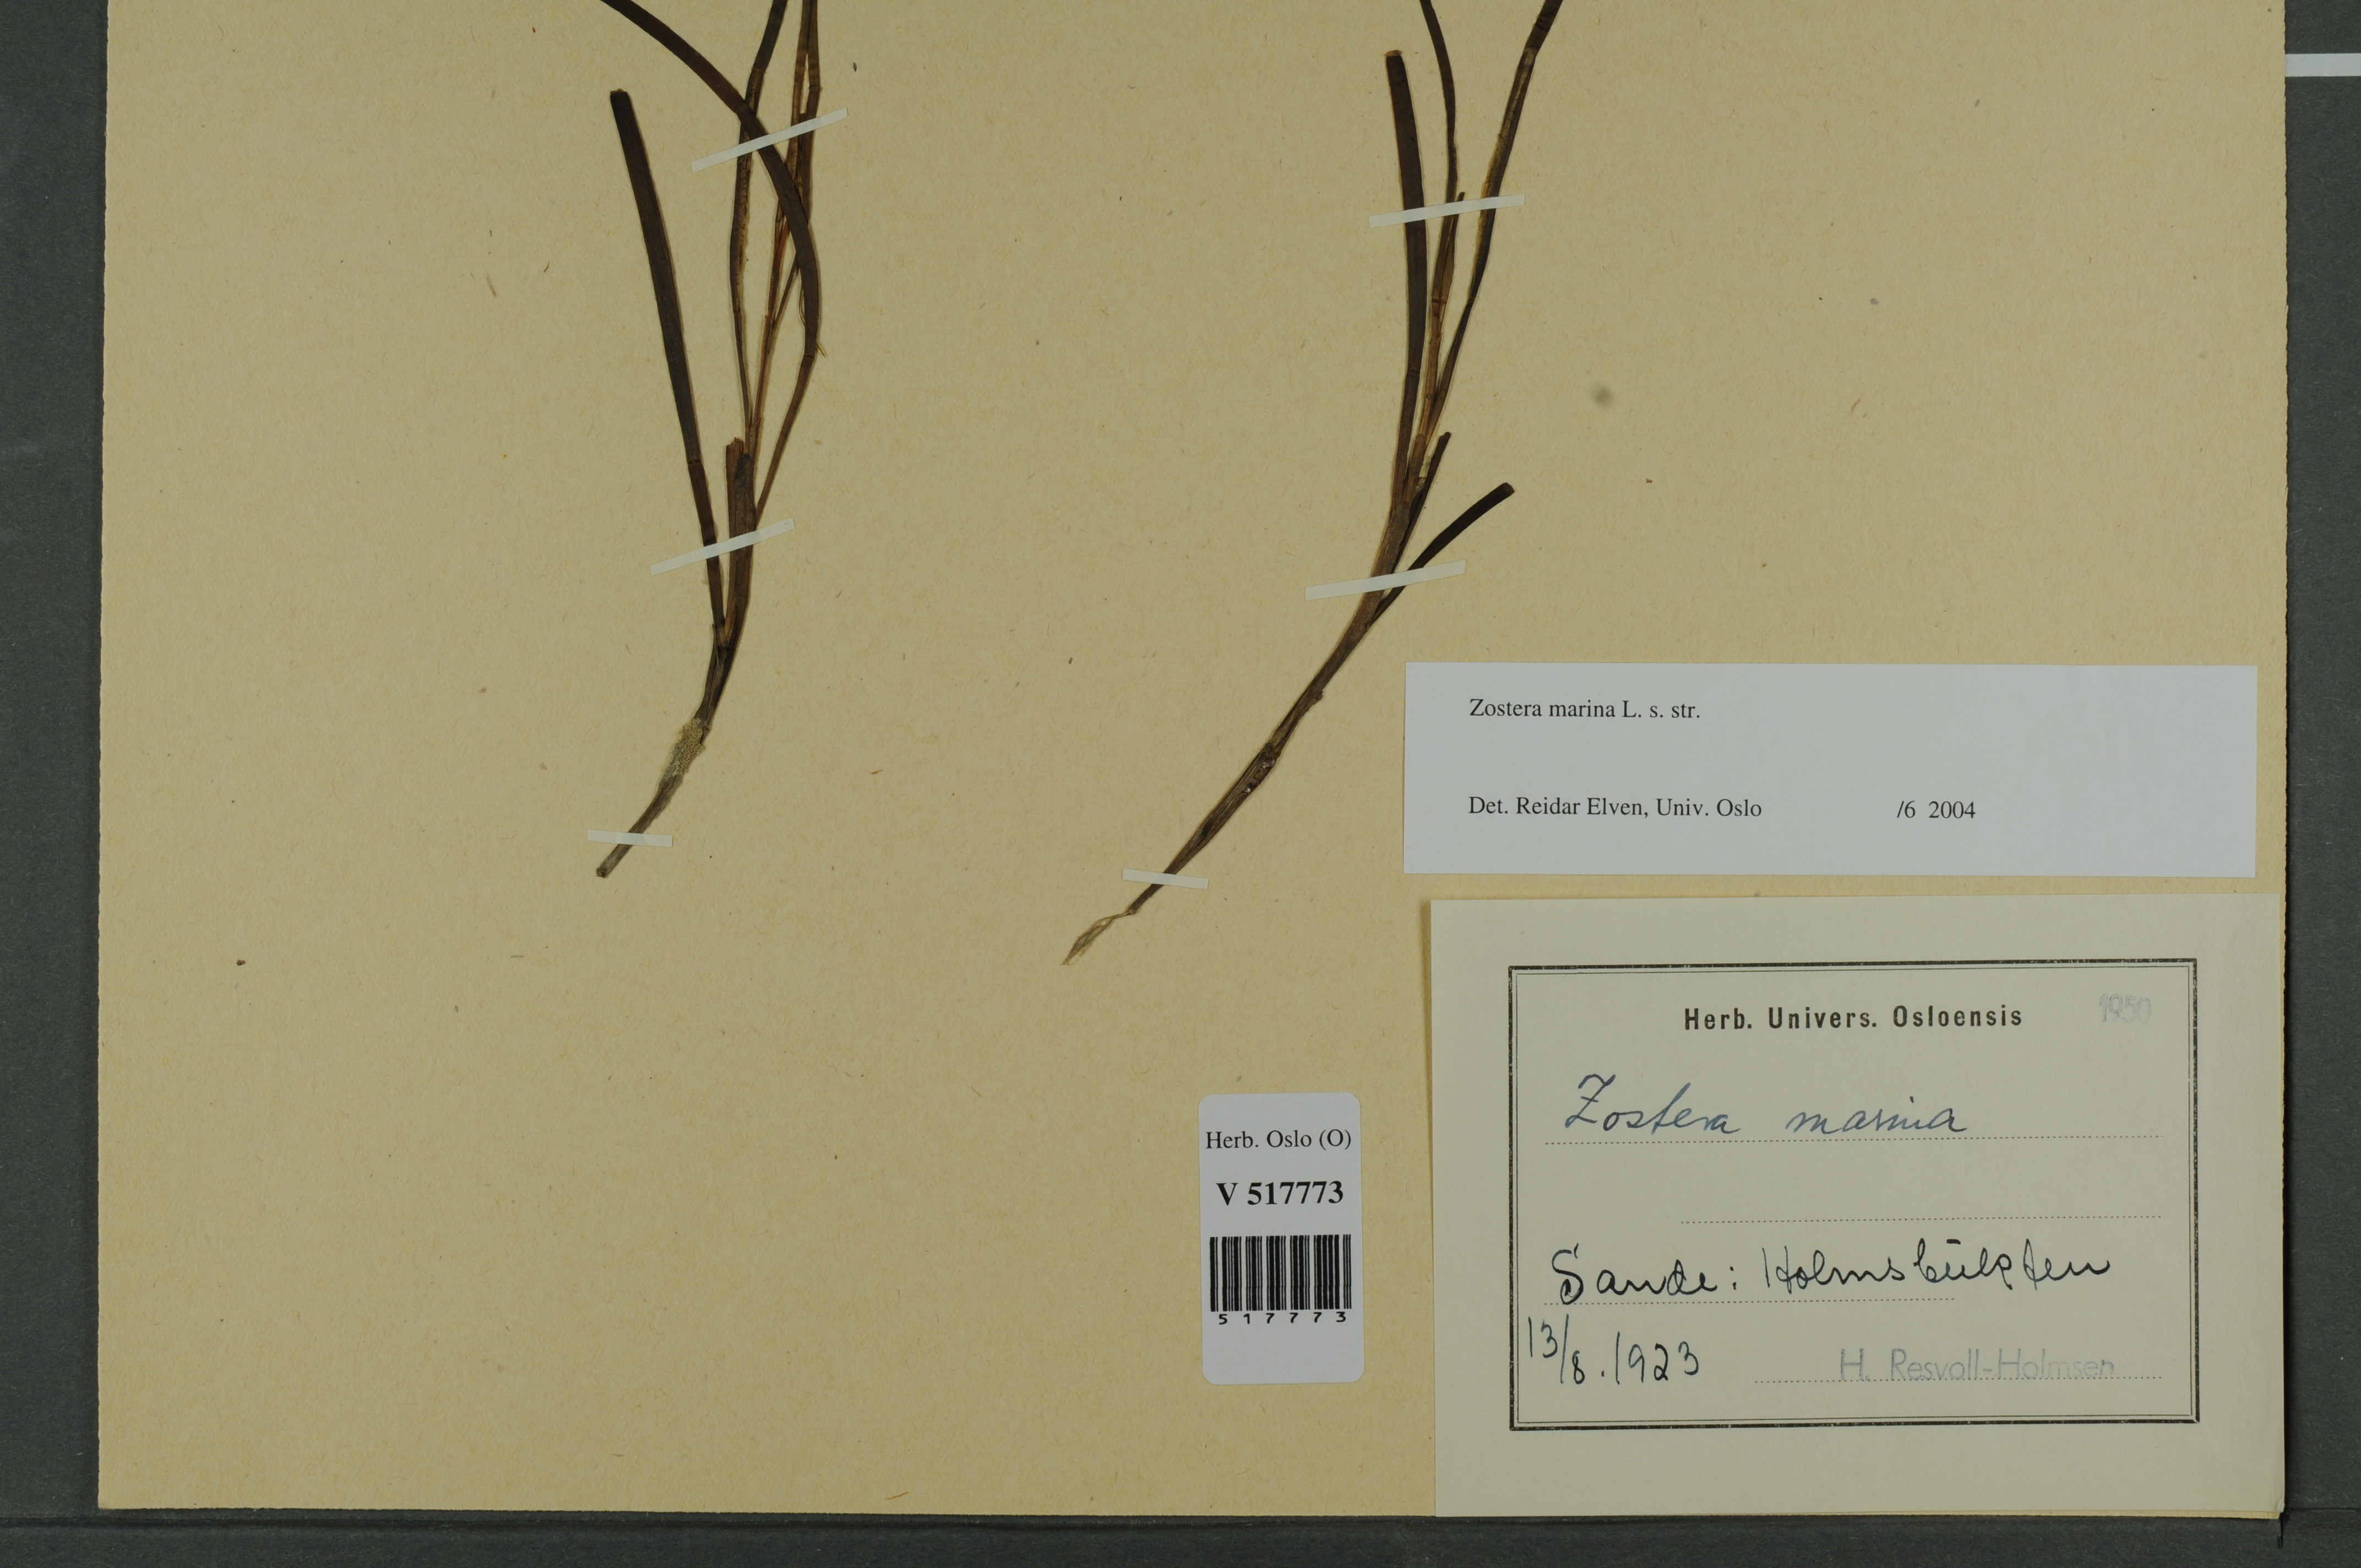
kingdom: Plantae
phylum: Tracheophyta
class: Liliopsida
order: Alismatales
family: Zosteraceae
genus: Zostera
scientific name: Zostera marina
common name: Eelgrass
